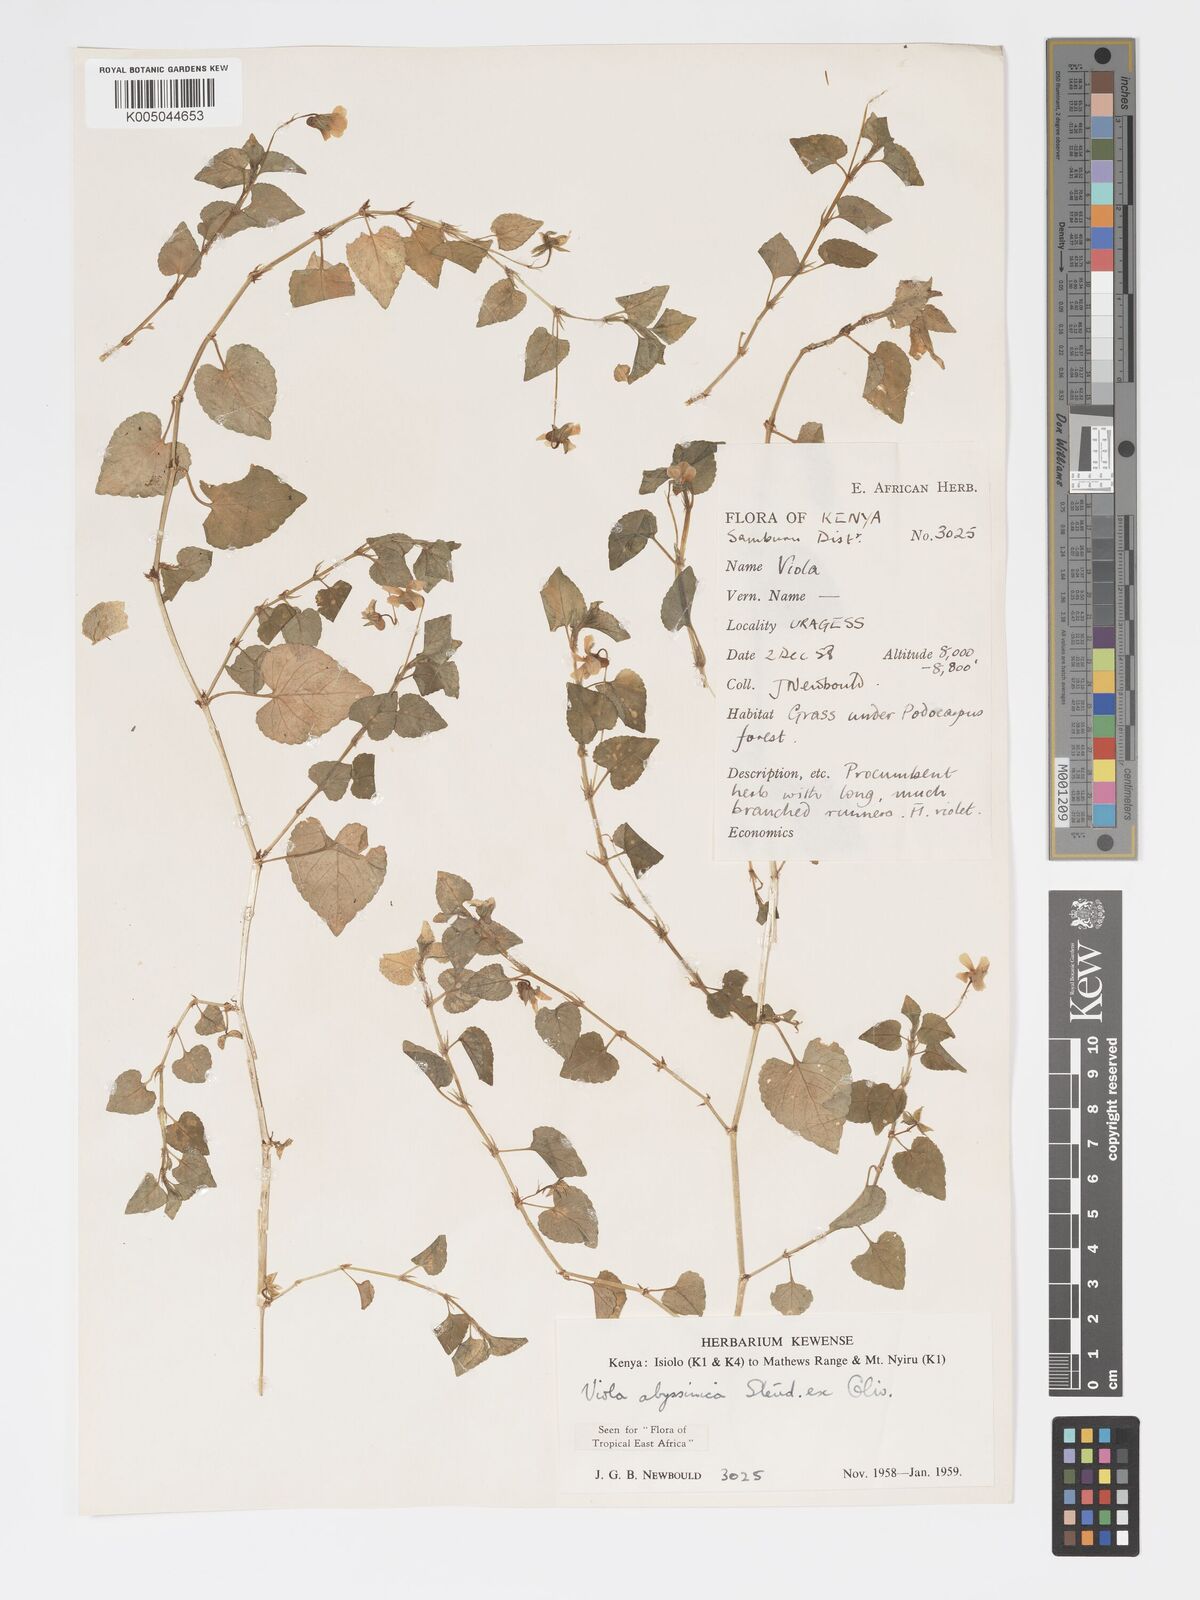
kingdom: Plantae
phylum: Tracheophyta
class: Magnoliopsida
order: Malpighiales
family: Violaceae
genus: Viola
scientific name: Viola abyssinica
